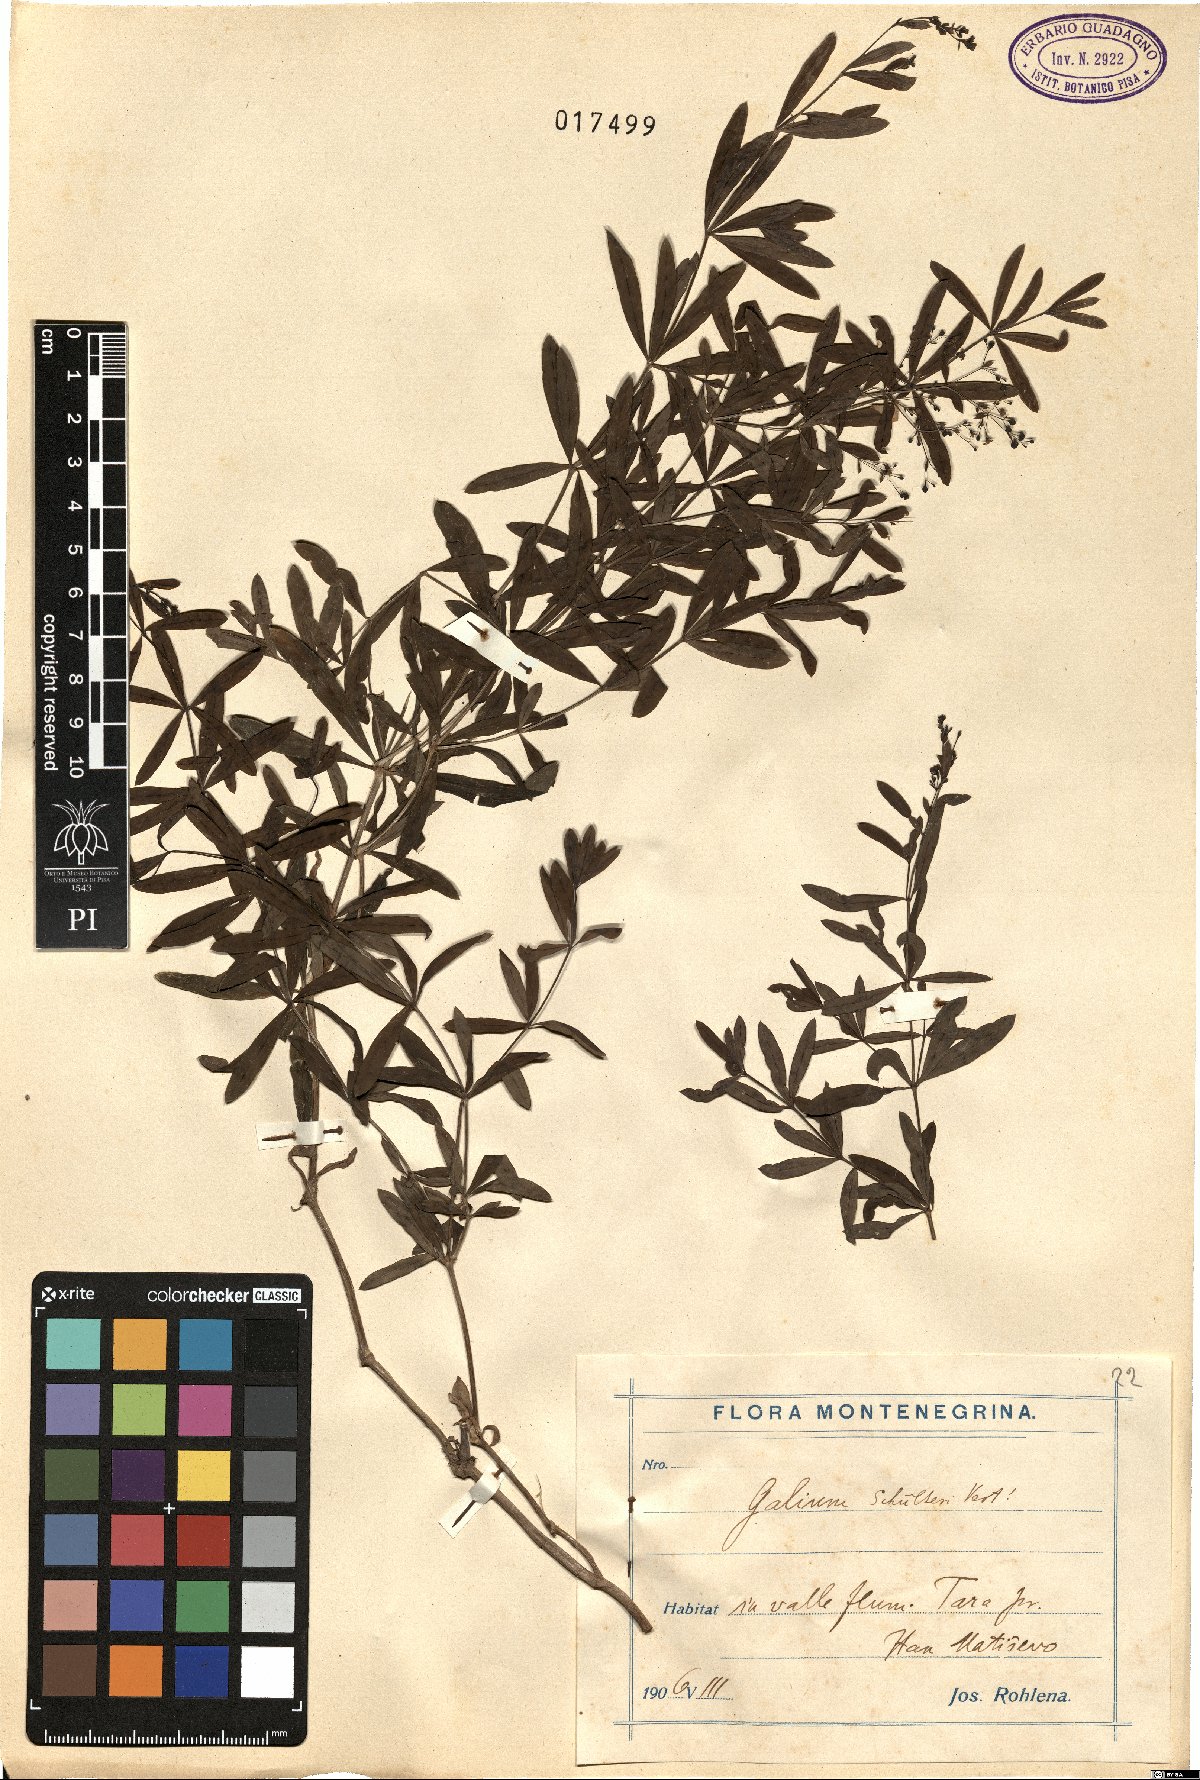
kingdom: Plantae
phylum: Tracheophyta
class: Magnoliopsida
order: Gentianales
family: Rubiaceae
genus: Galium
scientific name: Galium intermedium
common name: Bedstraw
